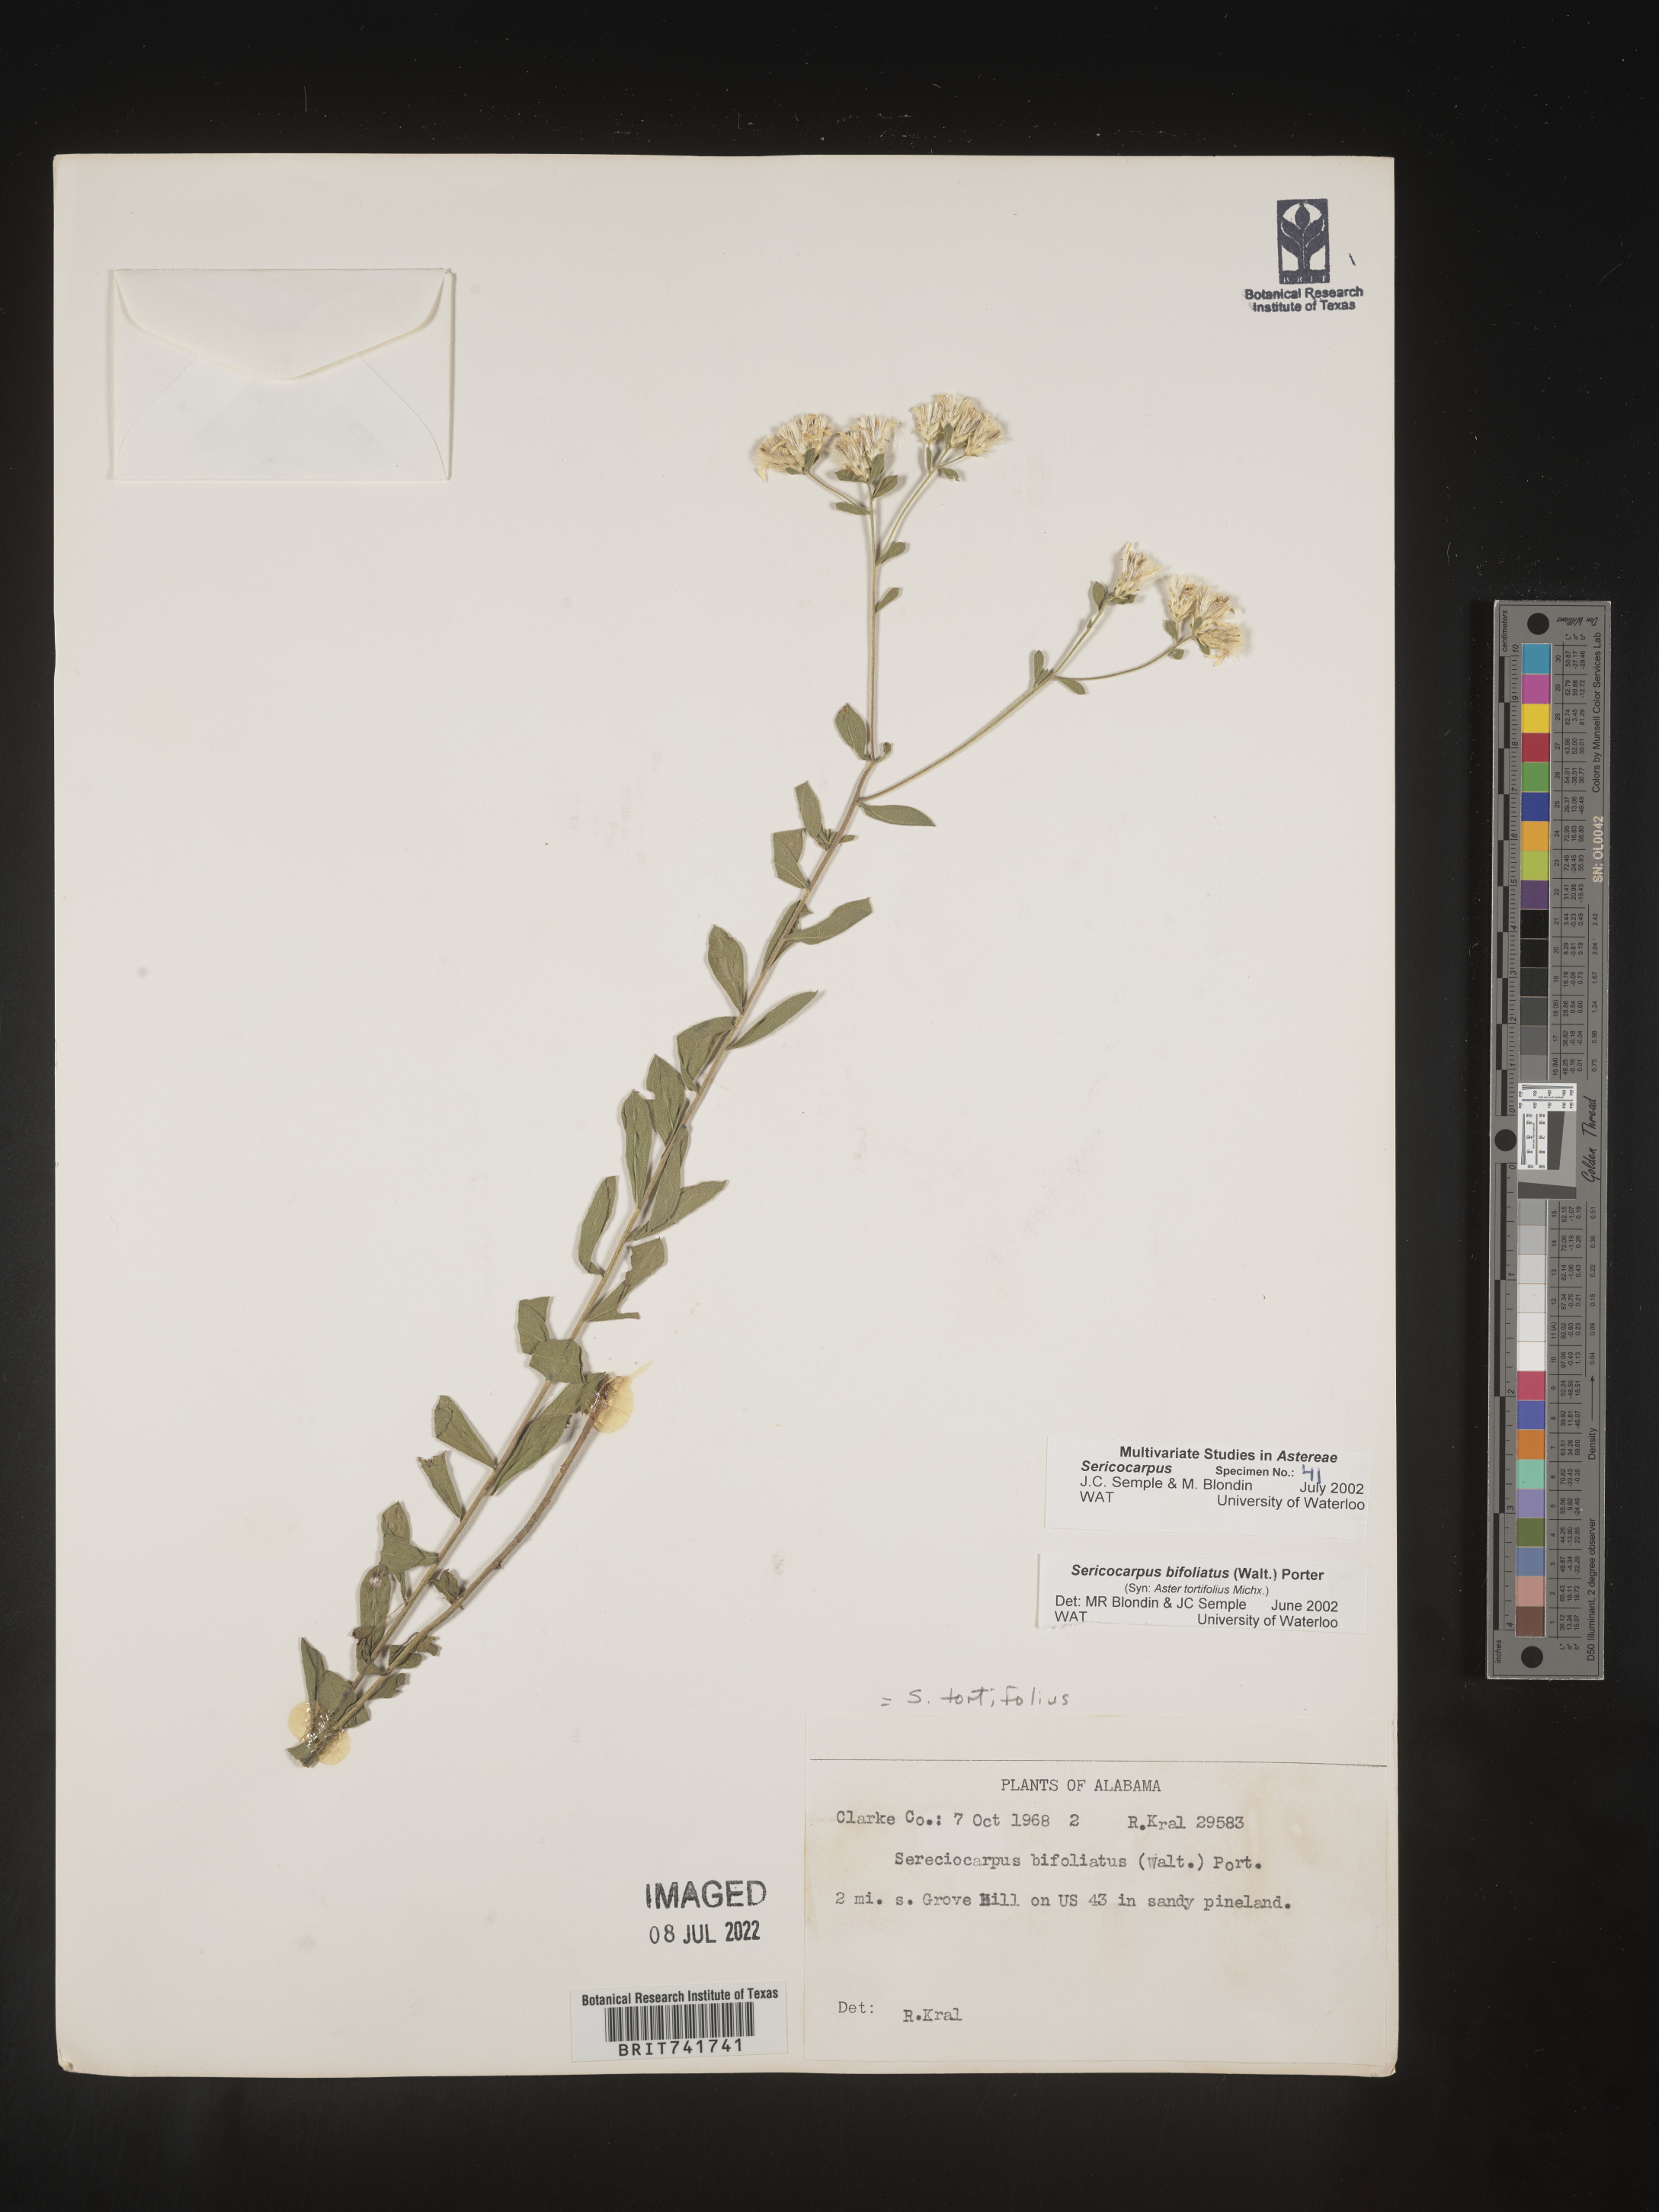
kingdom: Plantae
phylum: Tracheophyta
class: Magnoliopsida
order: Asterales
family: Asteraceae
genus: Sericocarpus
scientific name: Sericocarpus tortifolius
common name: Dixie aster
